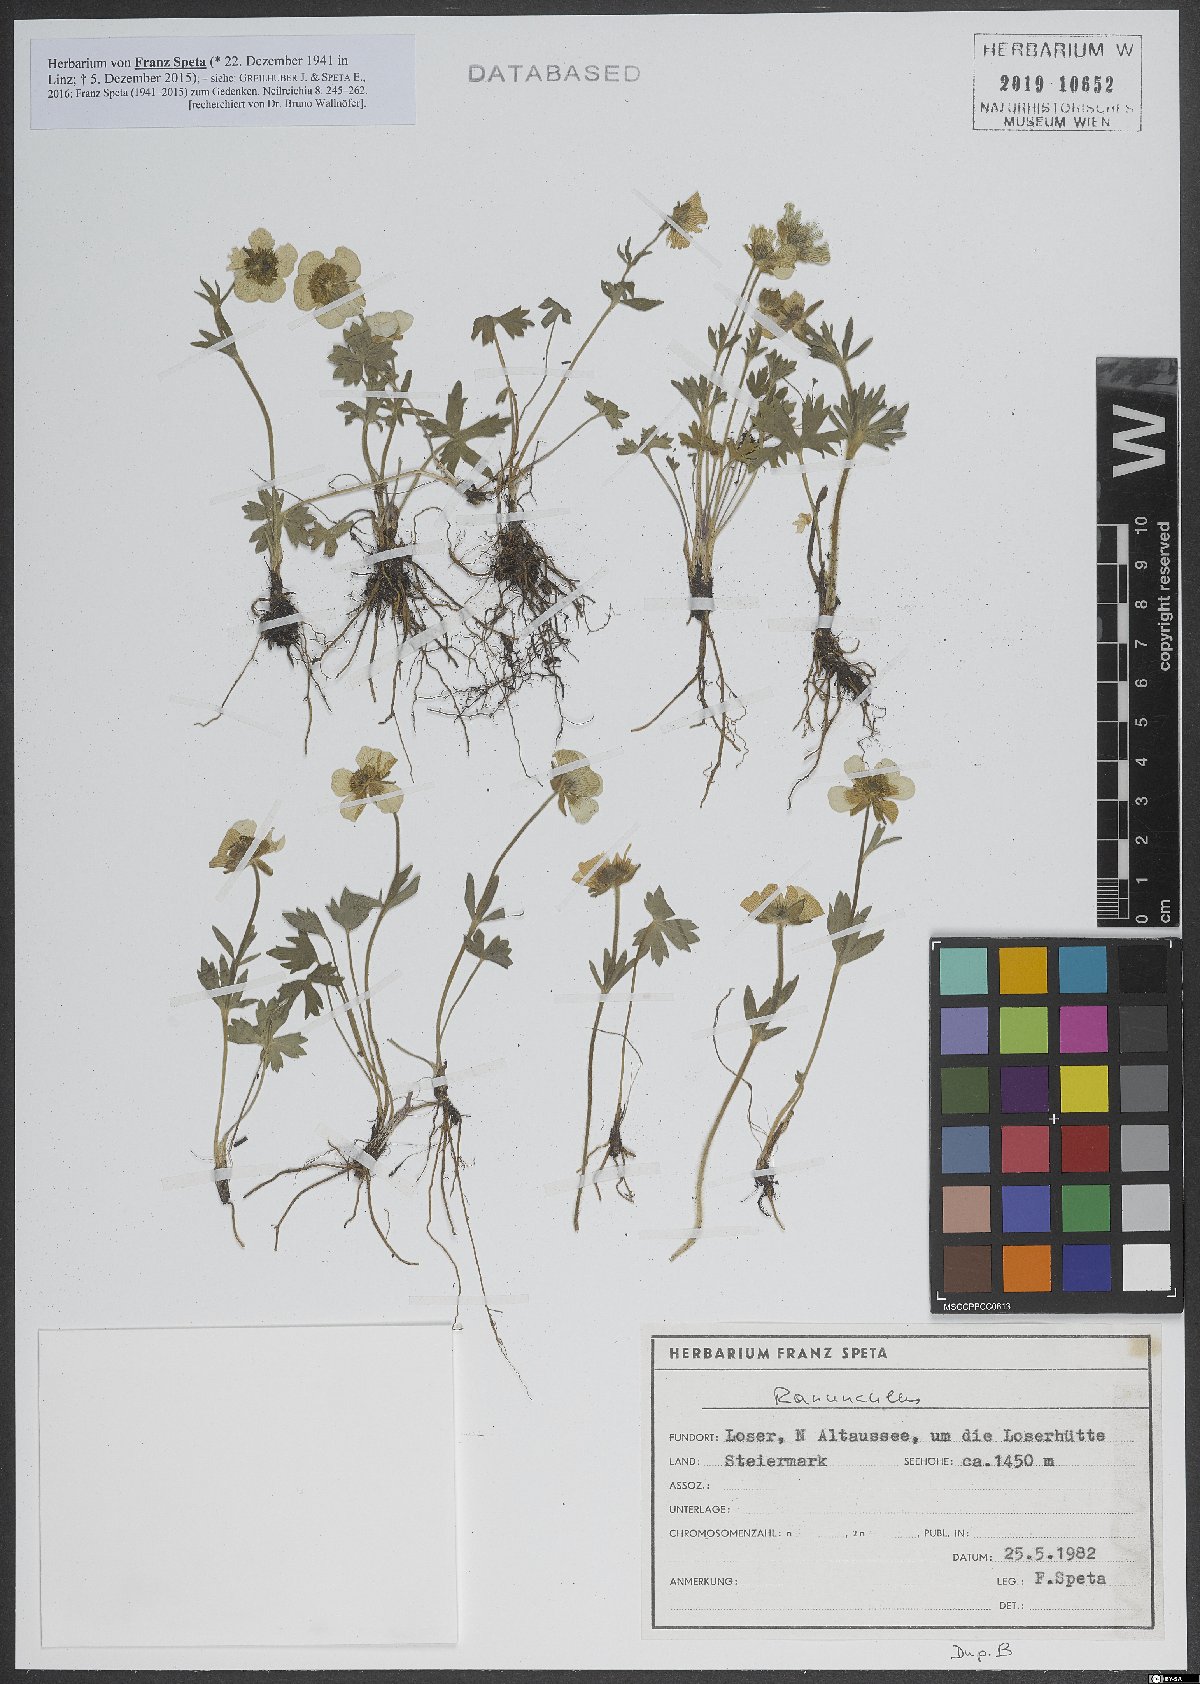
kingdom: Plantae
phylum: Tracheophyta
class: Magnoliopsida
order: Ranunculales
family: Ranunculaceae
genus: Ranunculus
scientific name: Ranunculus
